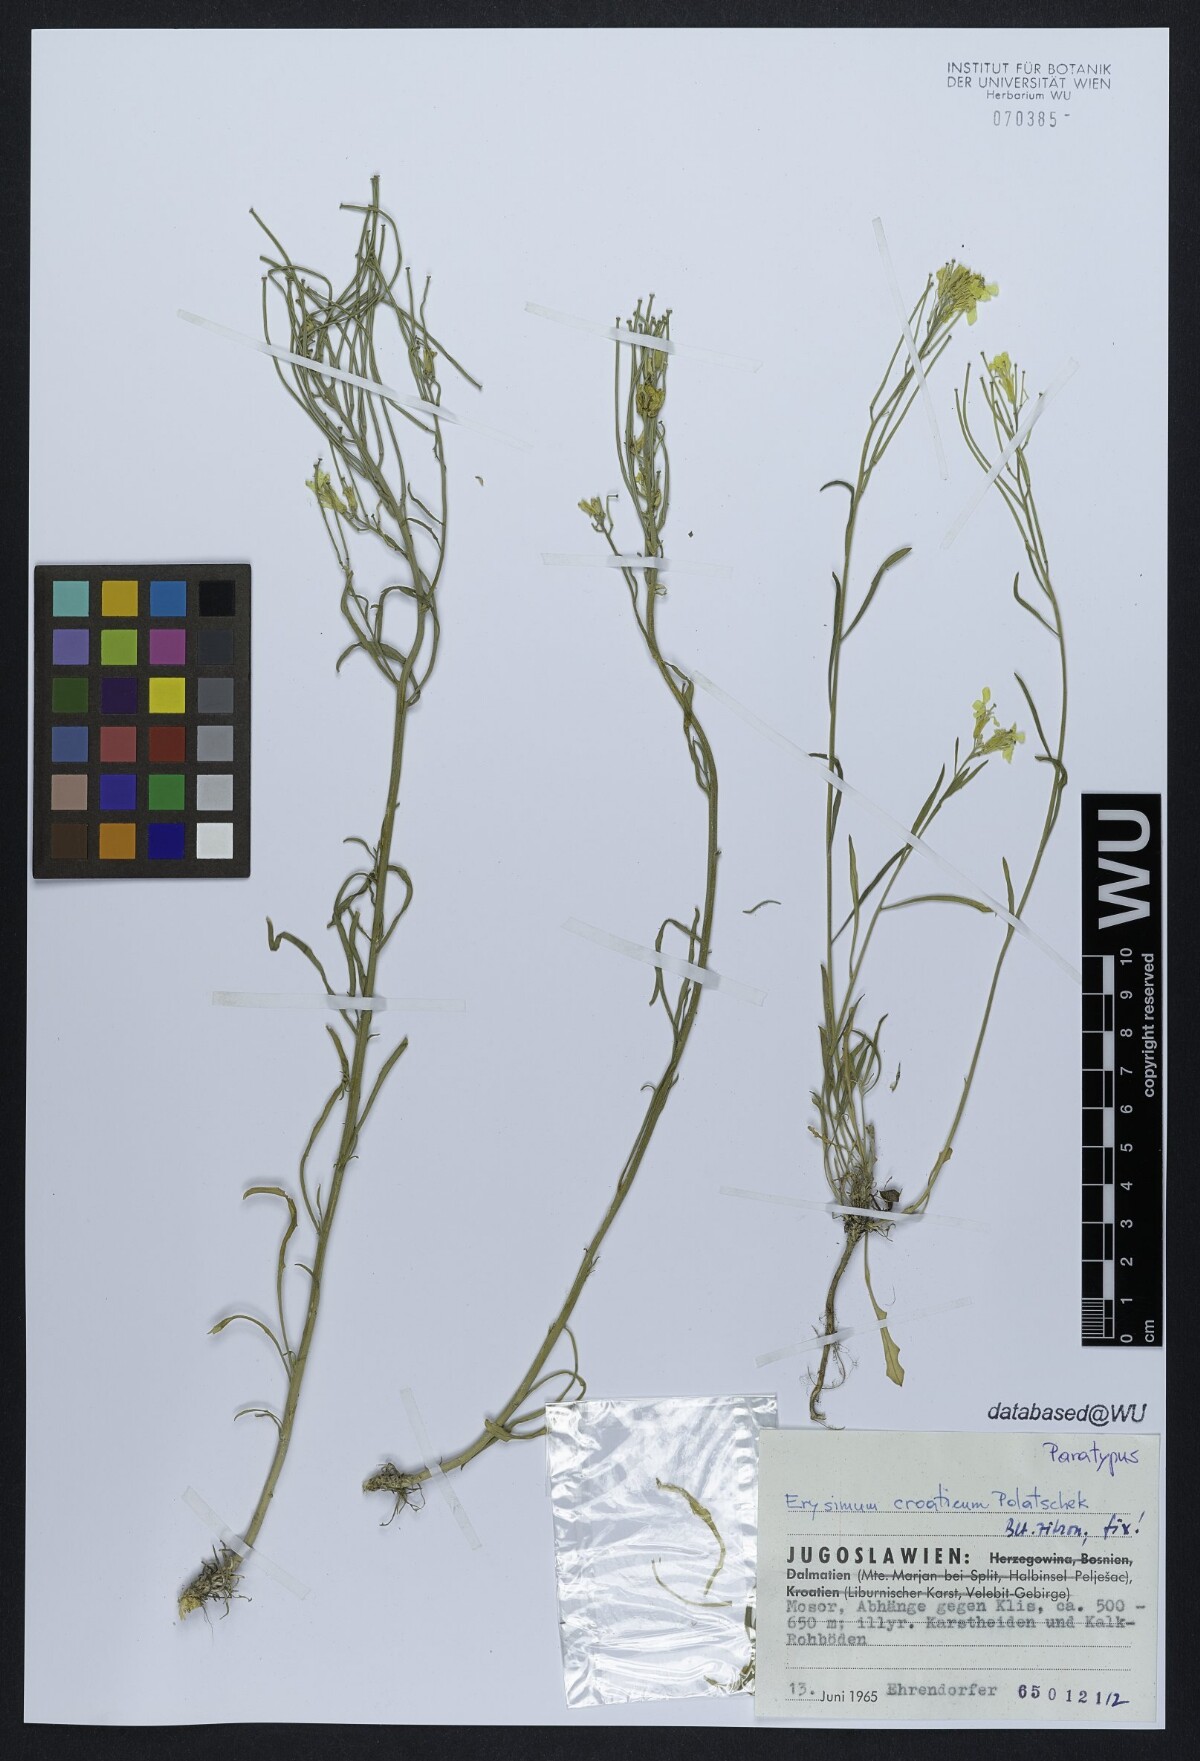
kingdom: Plantae
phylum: Tracheophyta
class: Magnoliopsida
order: Brassicales
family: Brassicaceae
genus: Erysimum
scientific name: Erysimum croaticum
